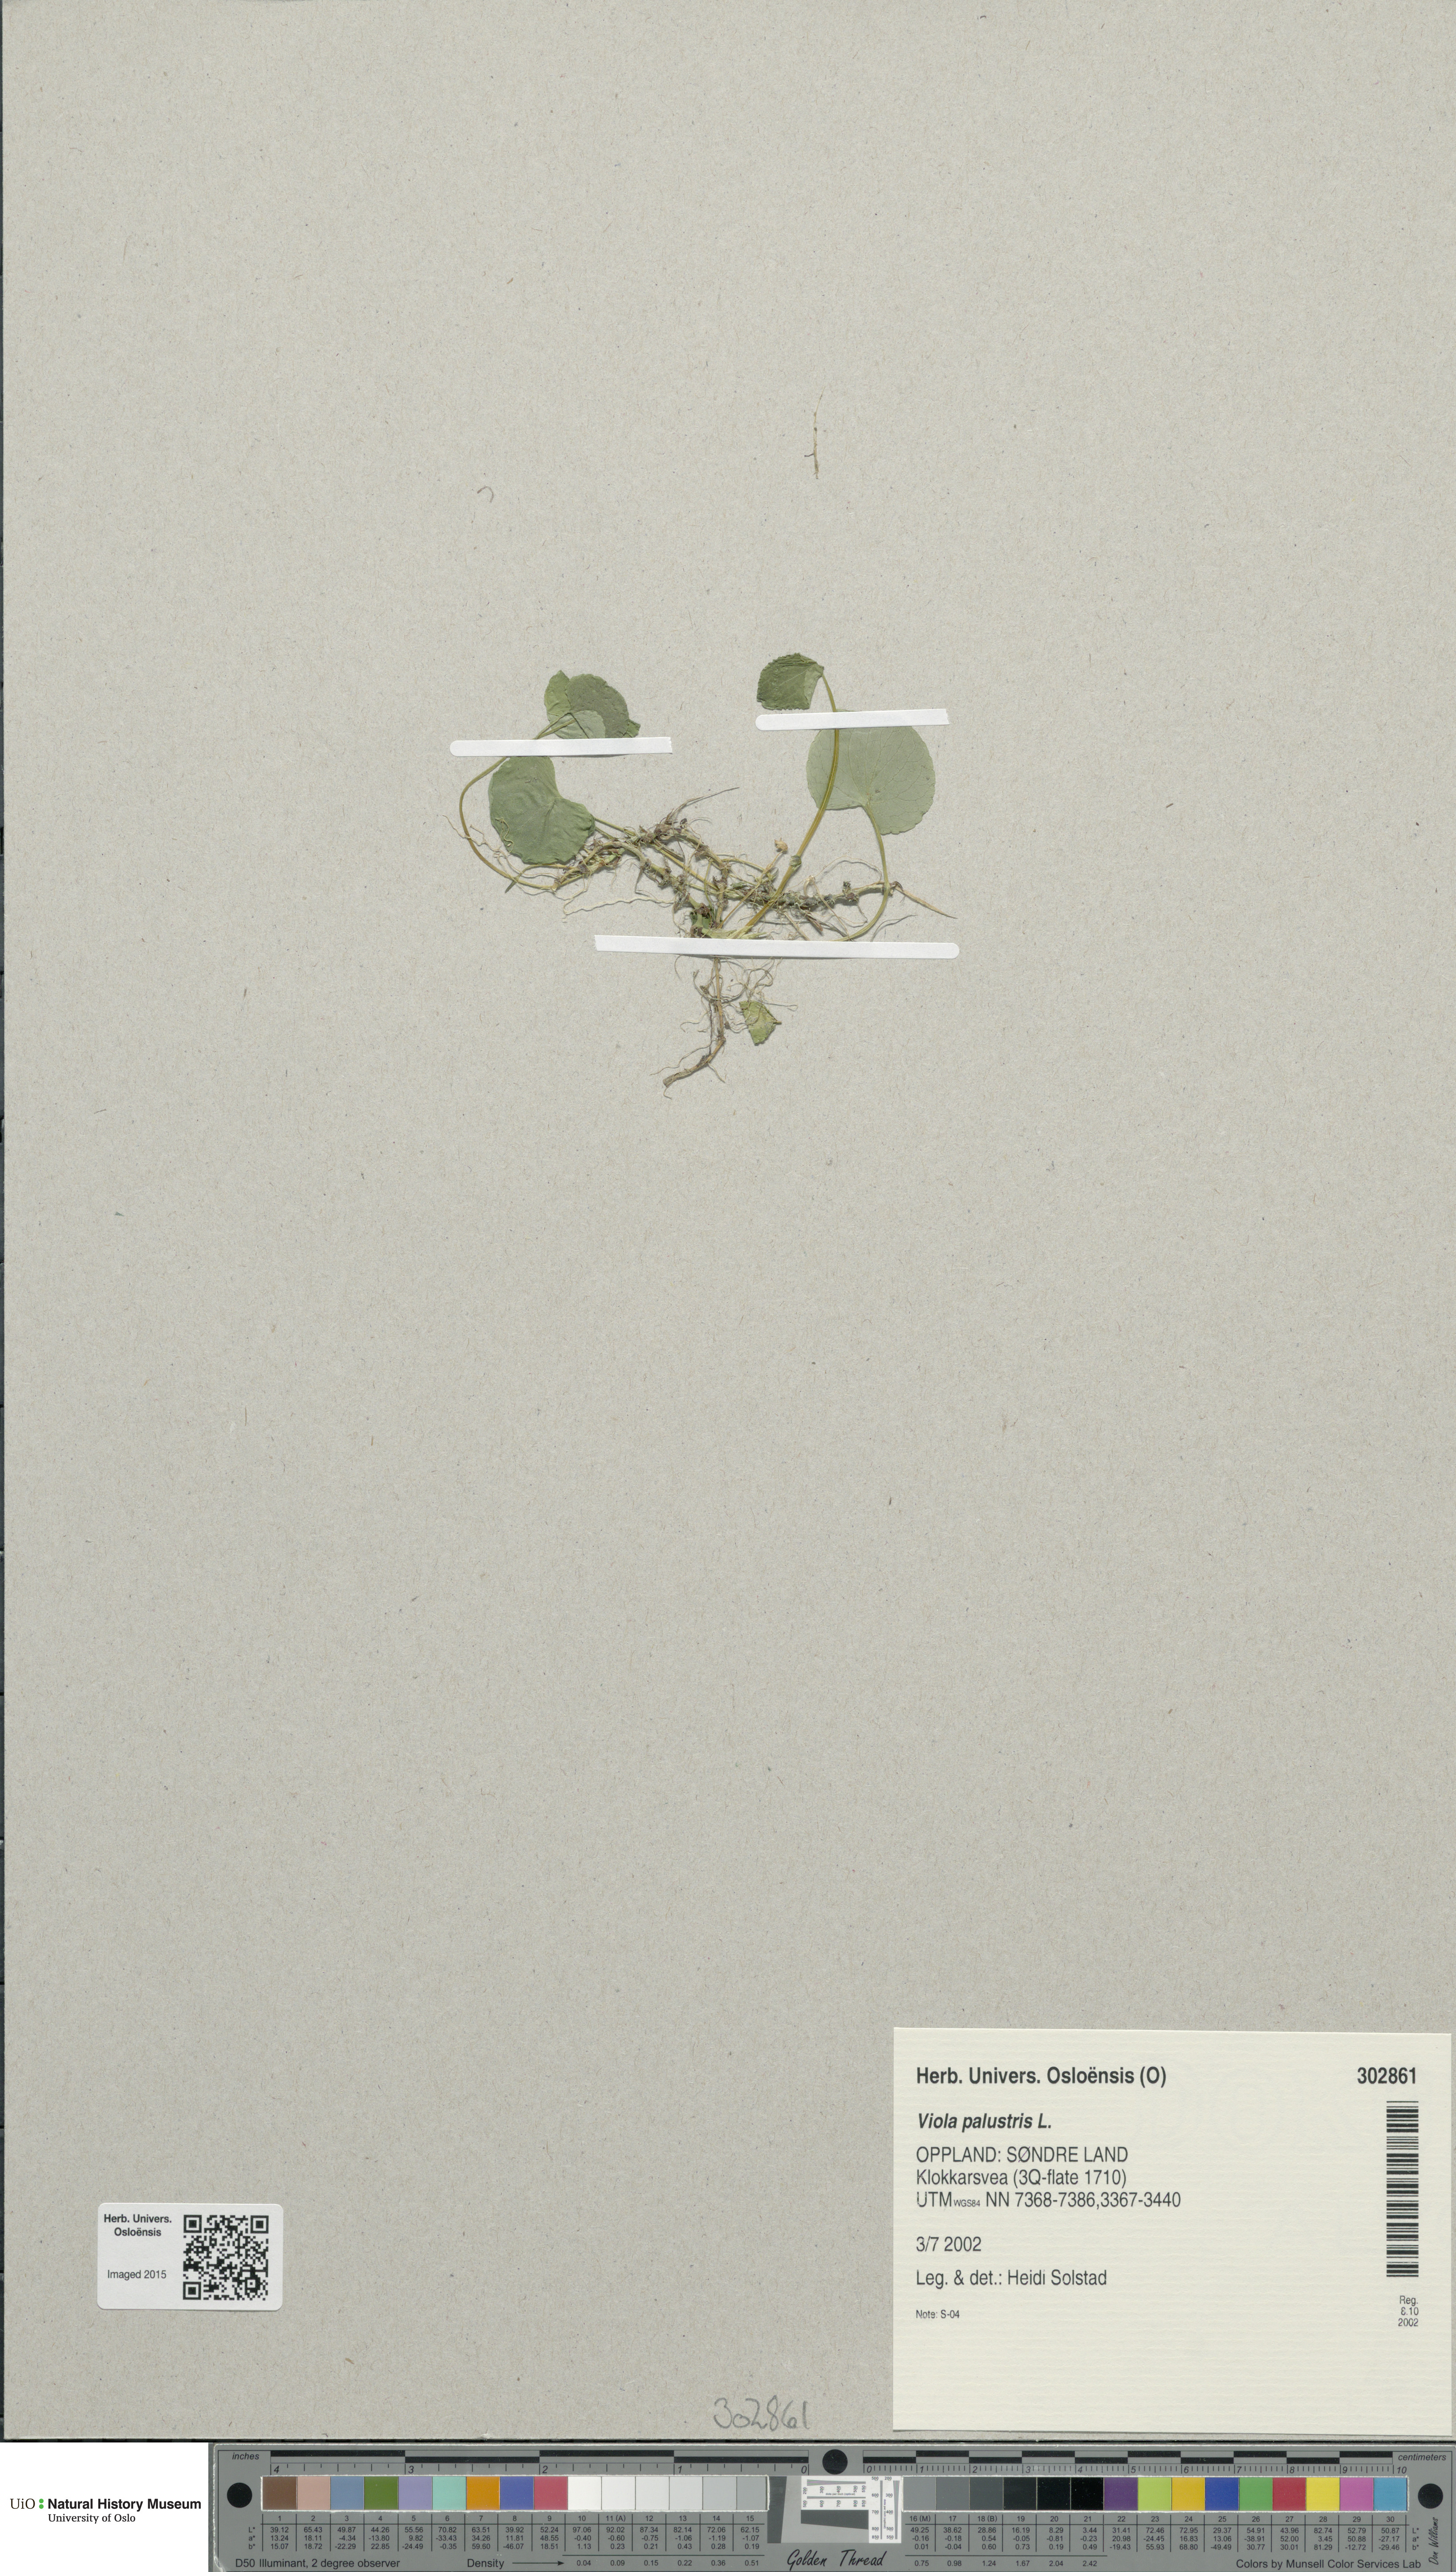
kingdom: Plantae
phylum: Tracheophyta
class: Magnoliopsida
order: Malpighiales
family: Violaceae
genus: Viola
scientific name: Viola palustris
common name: Marsh violet
